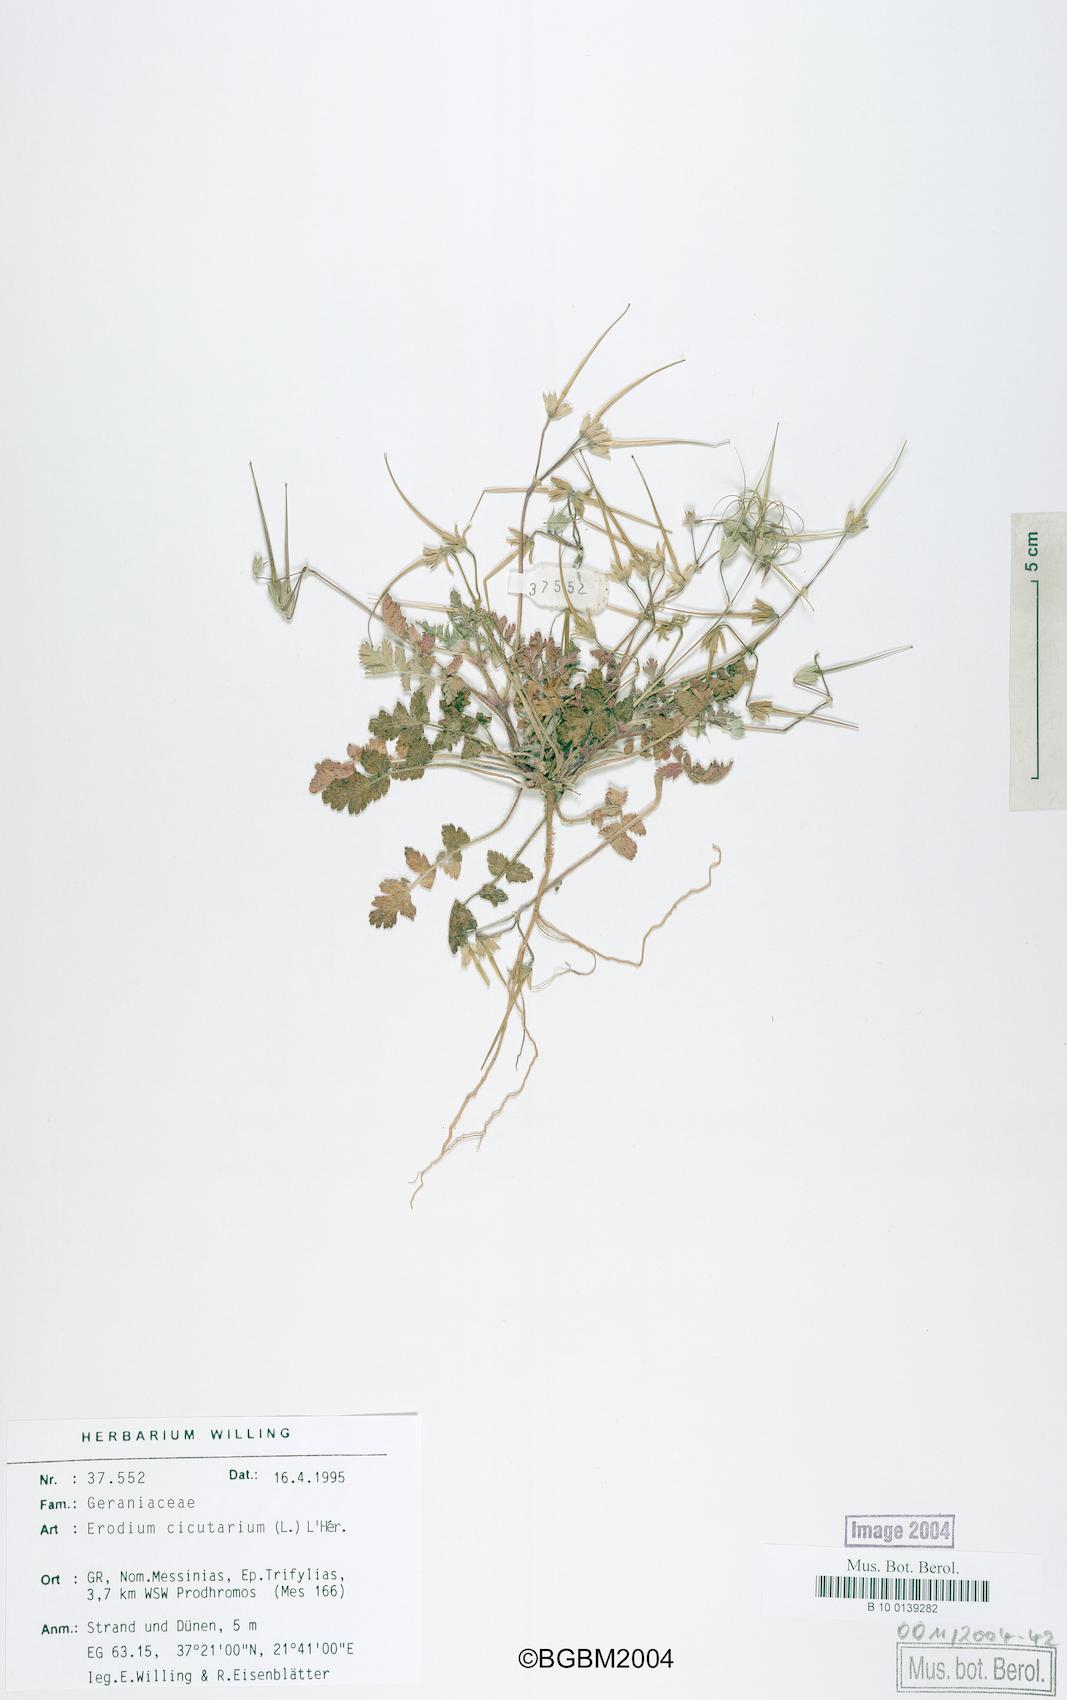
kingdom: Plantae
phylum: Tracheophyta
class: Magnoliopsida
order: Geraniales
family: Geraniaceae
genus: Erodium
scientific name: Erodium cicutarium
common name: Common stork's-bill
